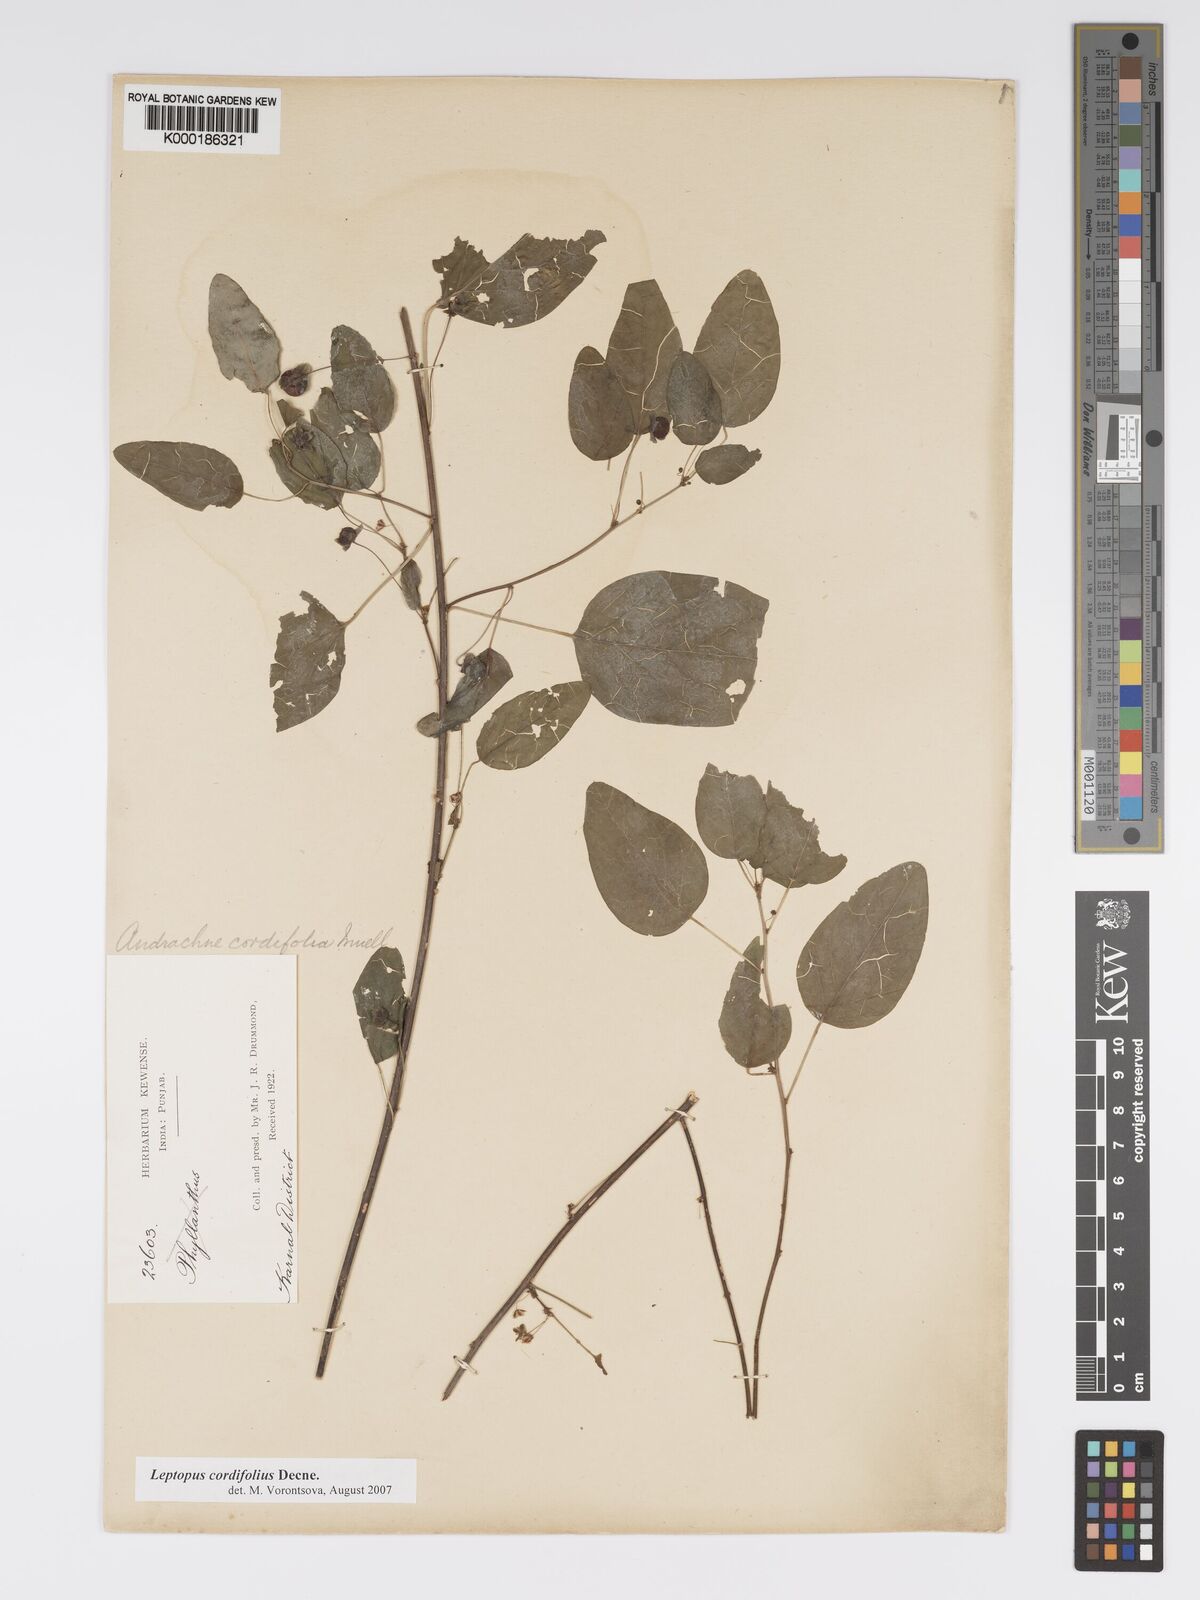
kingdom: Plantae
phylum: Tracheophyta
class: Magnoliopsida
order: Malpighiales
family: Phyllanthaceae
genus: Leptopus
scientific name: Leptopus cordifolius
